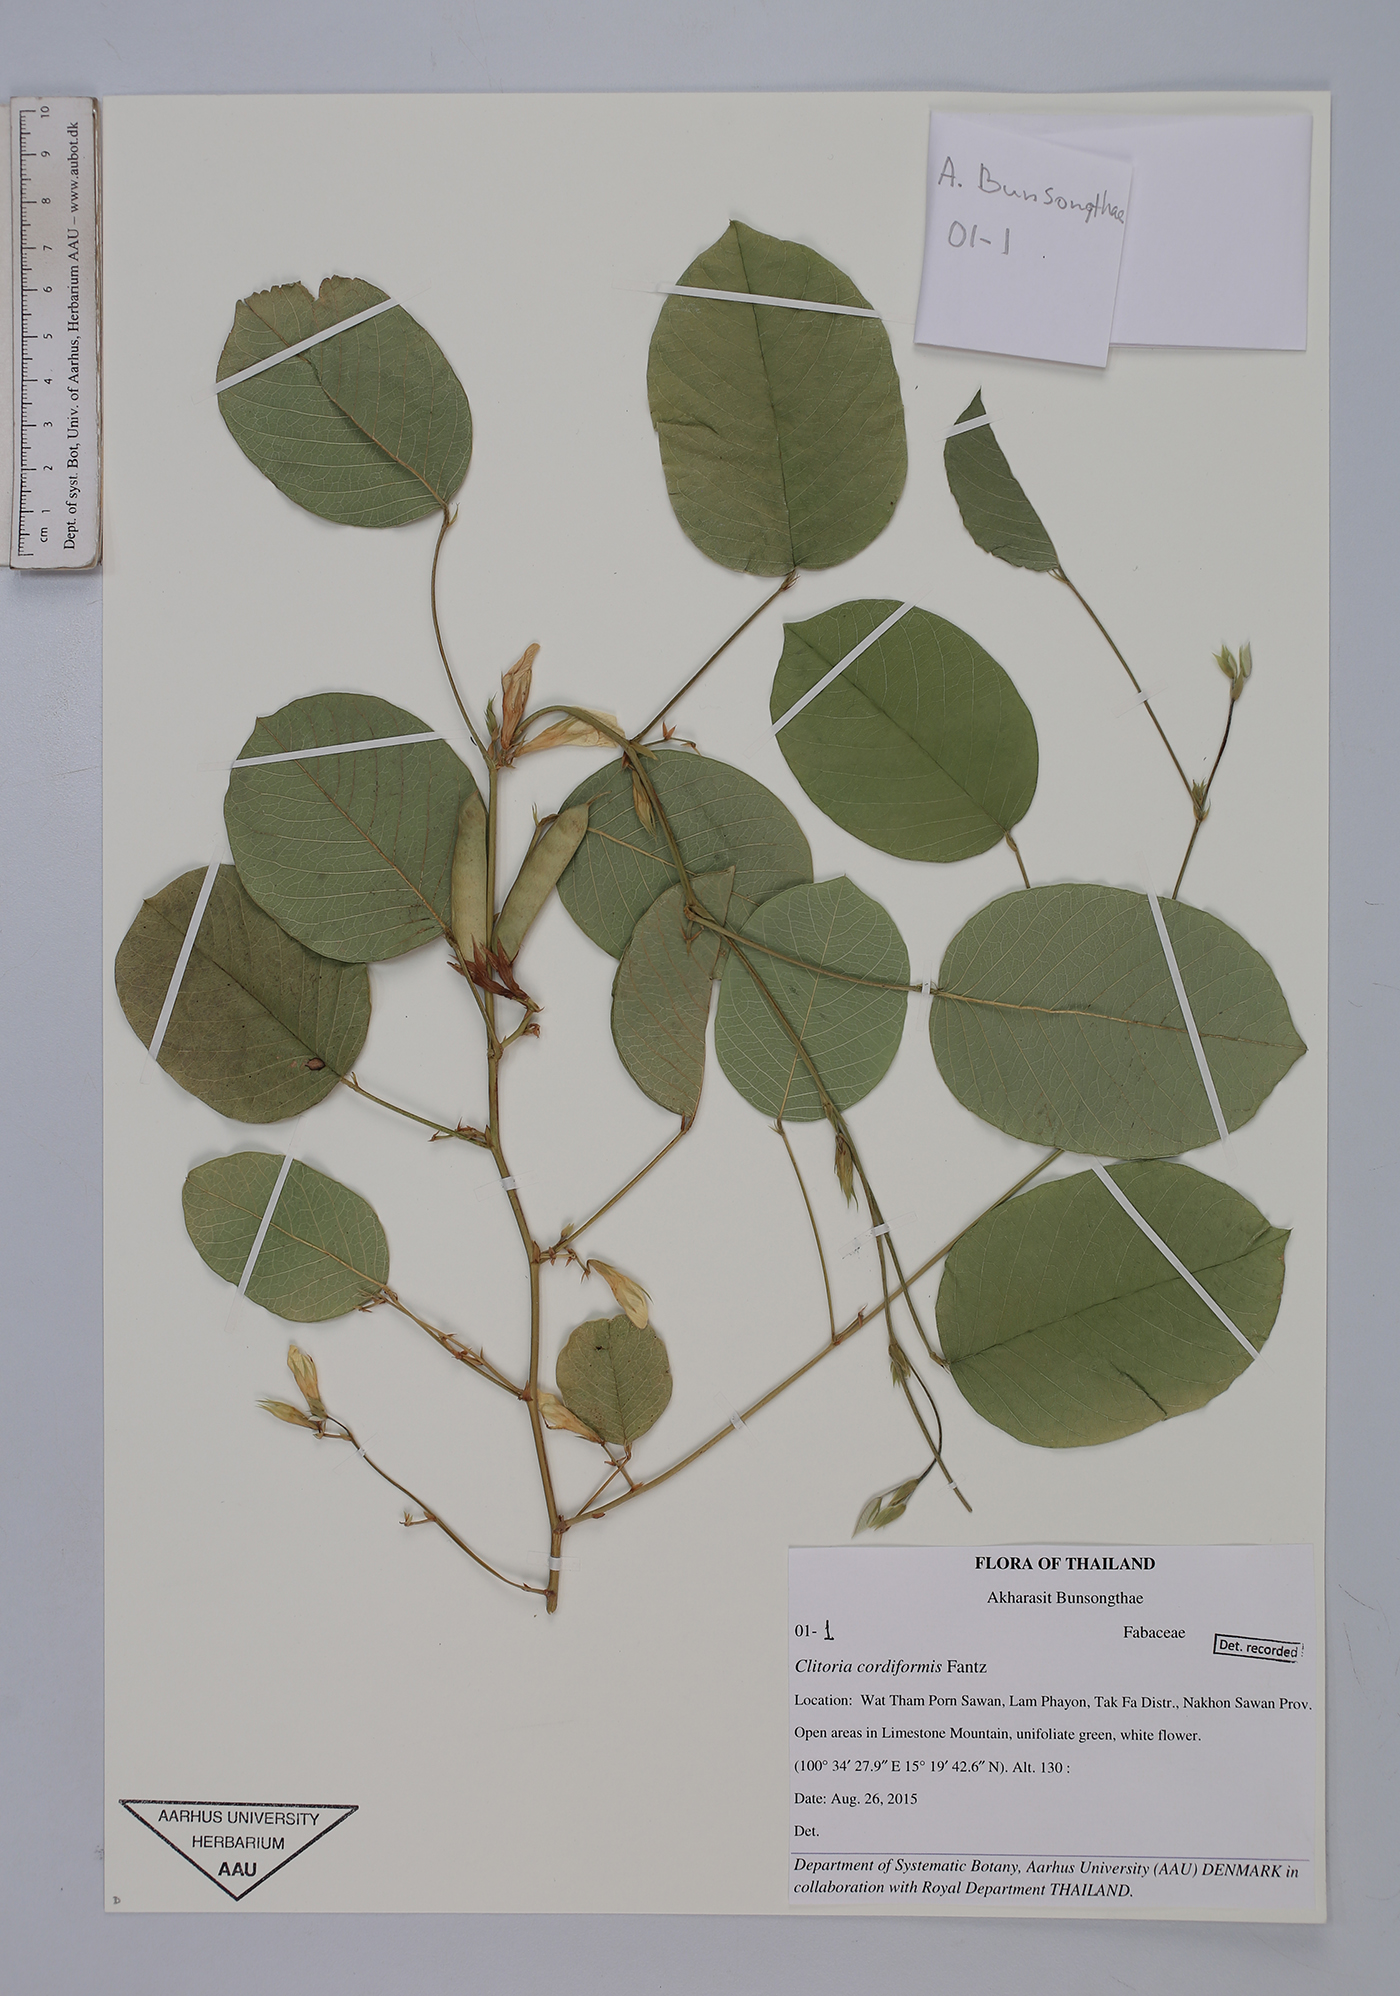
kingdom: Plantae
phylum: Tracheophyta
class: Magnoliopsida
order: Fabales
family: Fabaceae
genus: Clitoria
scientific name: Clitoria cordiformis
